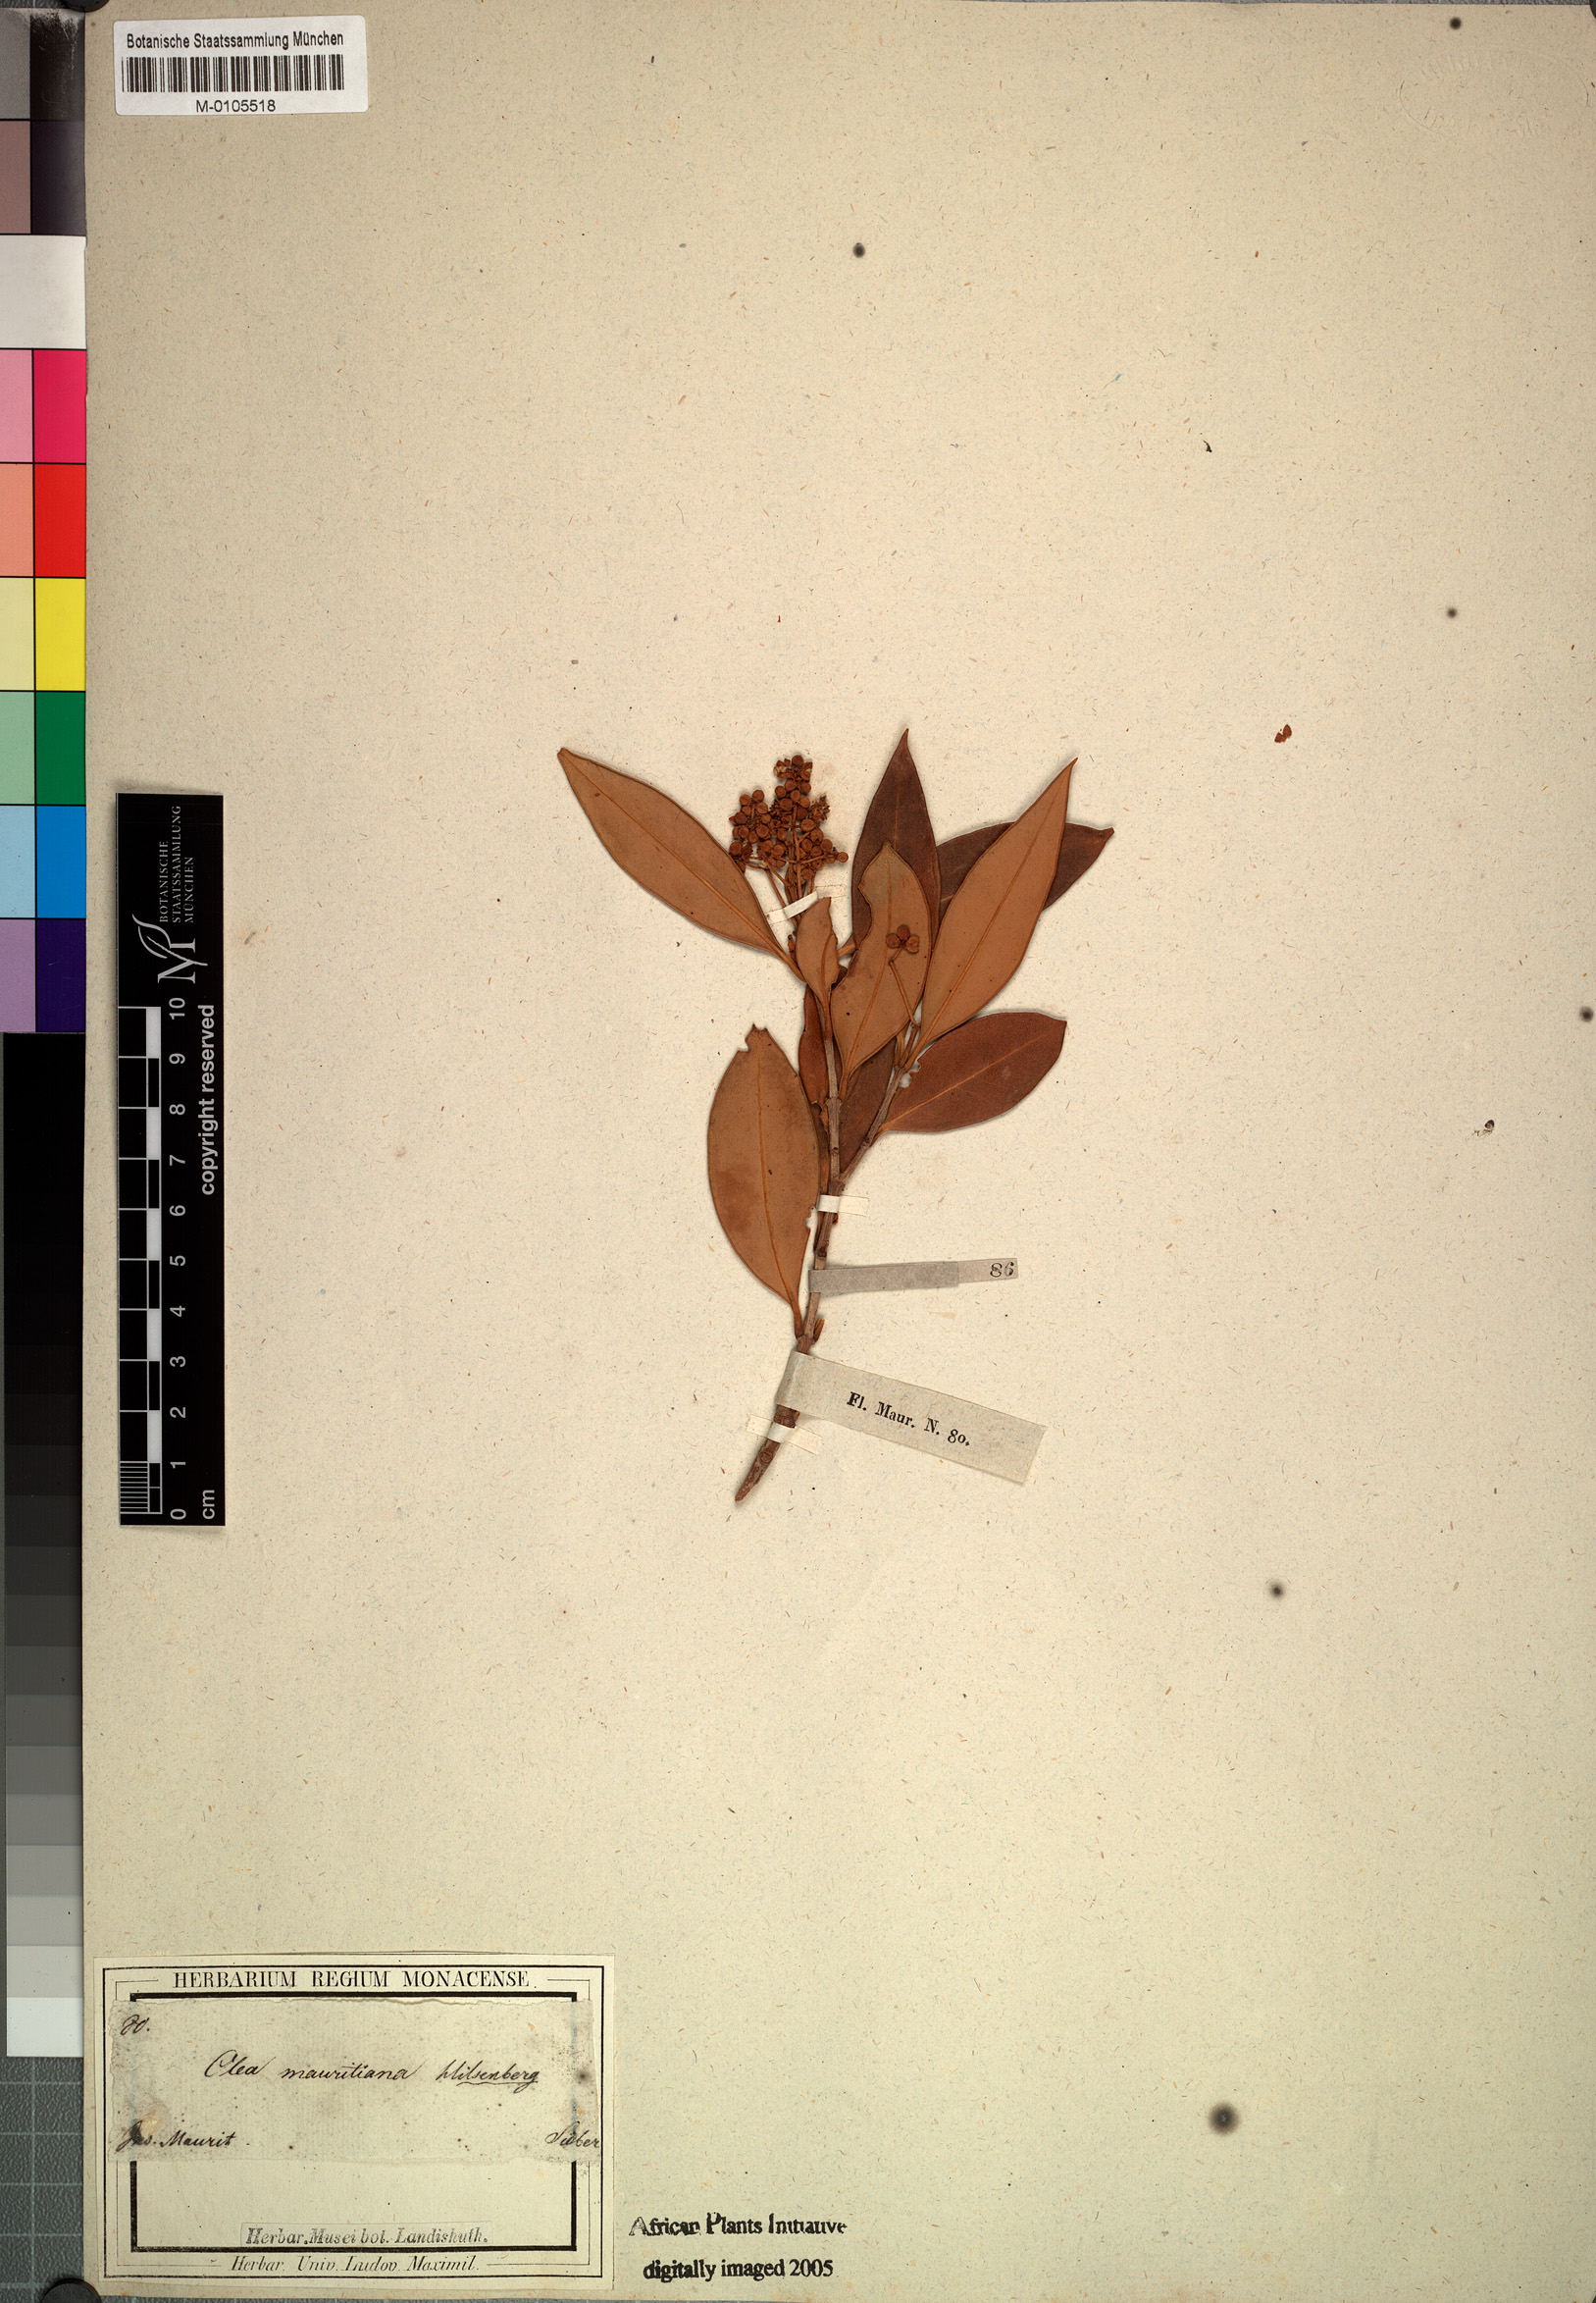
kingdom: Plantae
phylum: Tracheophyta
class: Magnoliopsida
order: Lamiales
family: Oleaceae
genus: Olea
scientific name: Olea lancea
